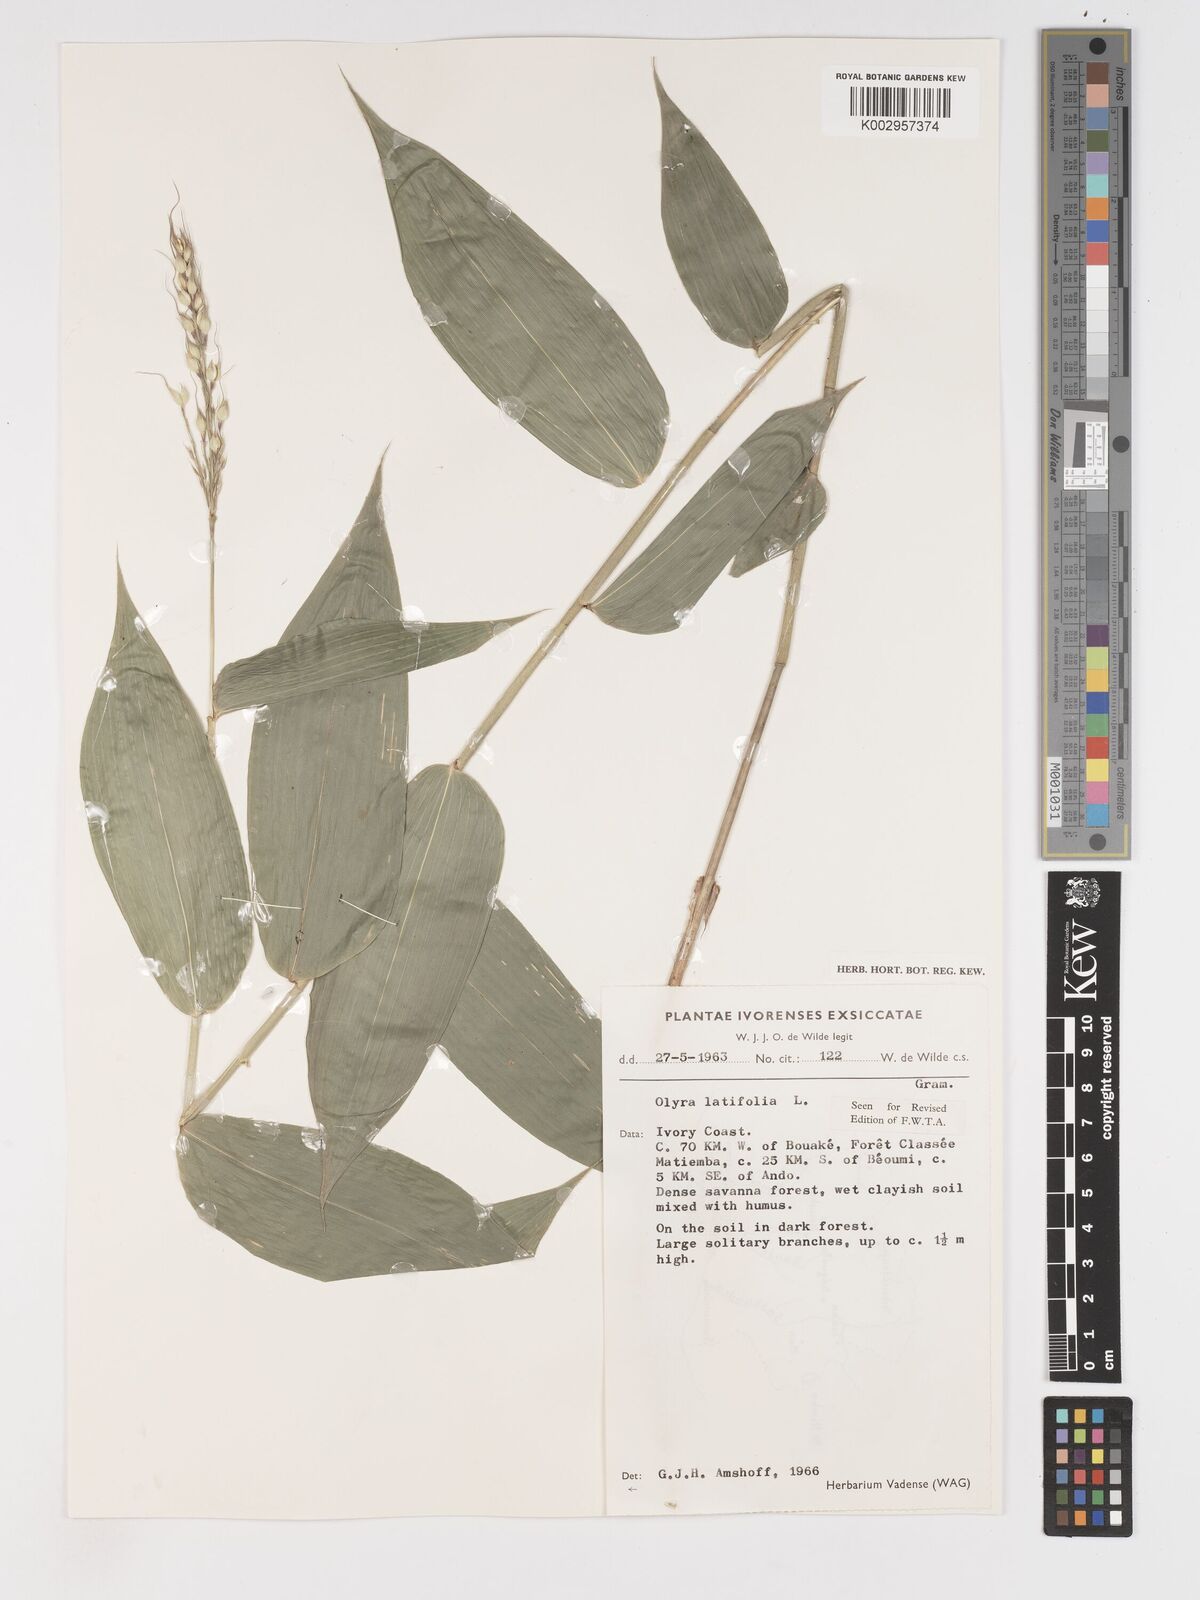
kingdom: Plantae
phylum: Tracheophyta
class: Liliopsida
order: Poales
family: Poaceae
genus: Olyra
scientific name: Olyra latifolia
